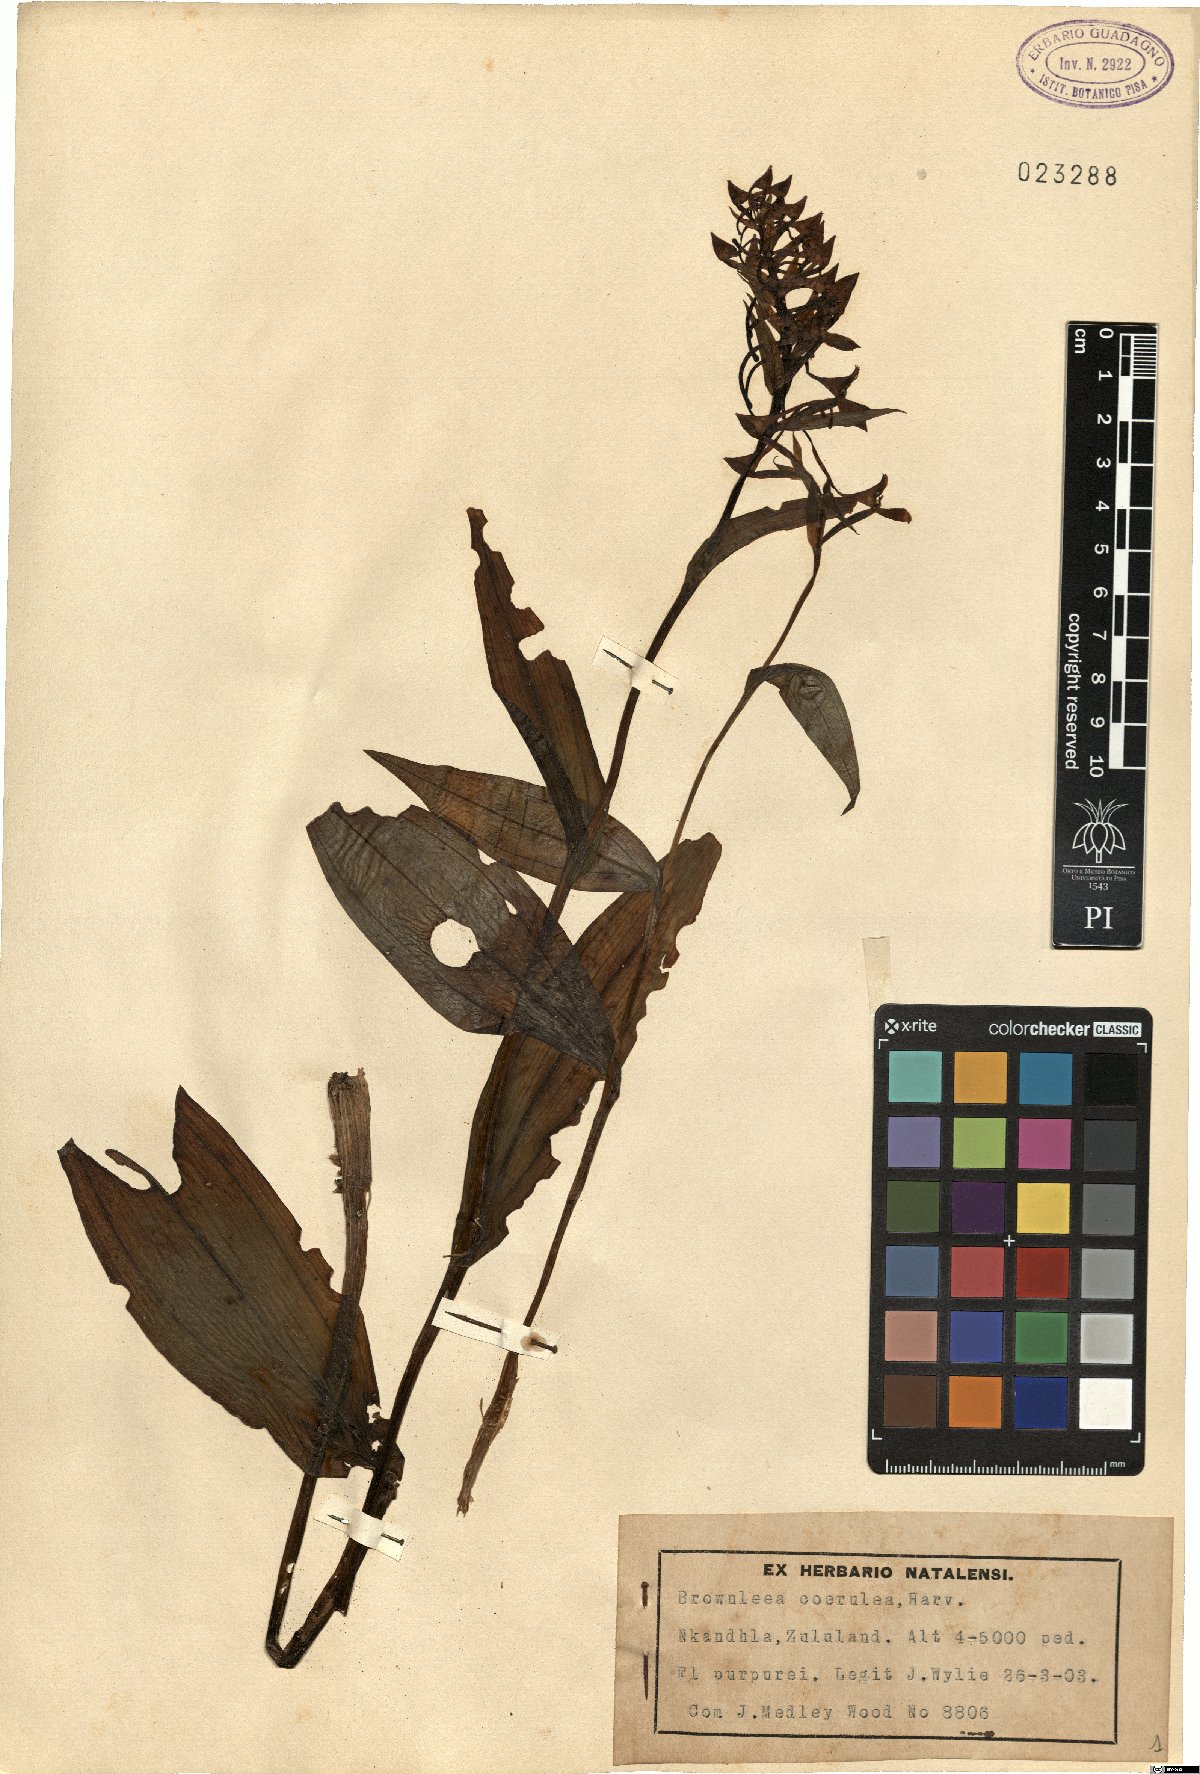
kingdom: Plantae
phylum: Tracheophyta
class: Liliopsida
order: Asparagales
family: Orchidaceae
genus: Brownleea
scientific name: Brownleea coerulea
